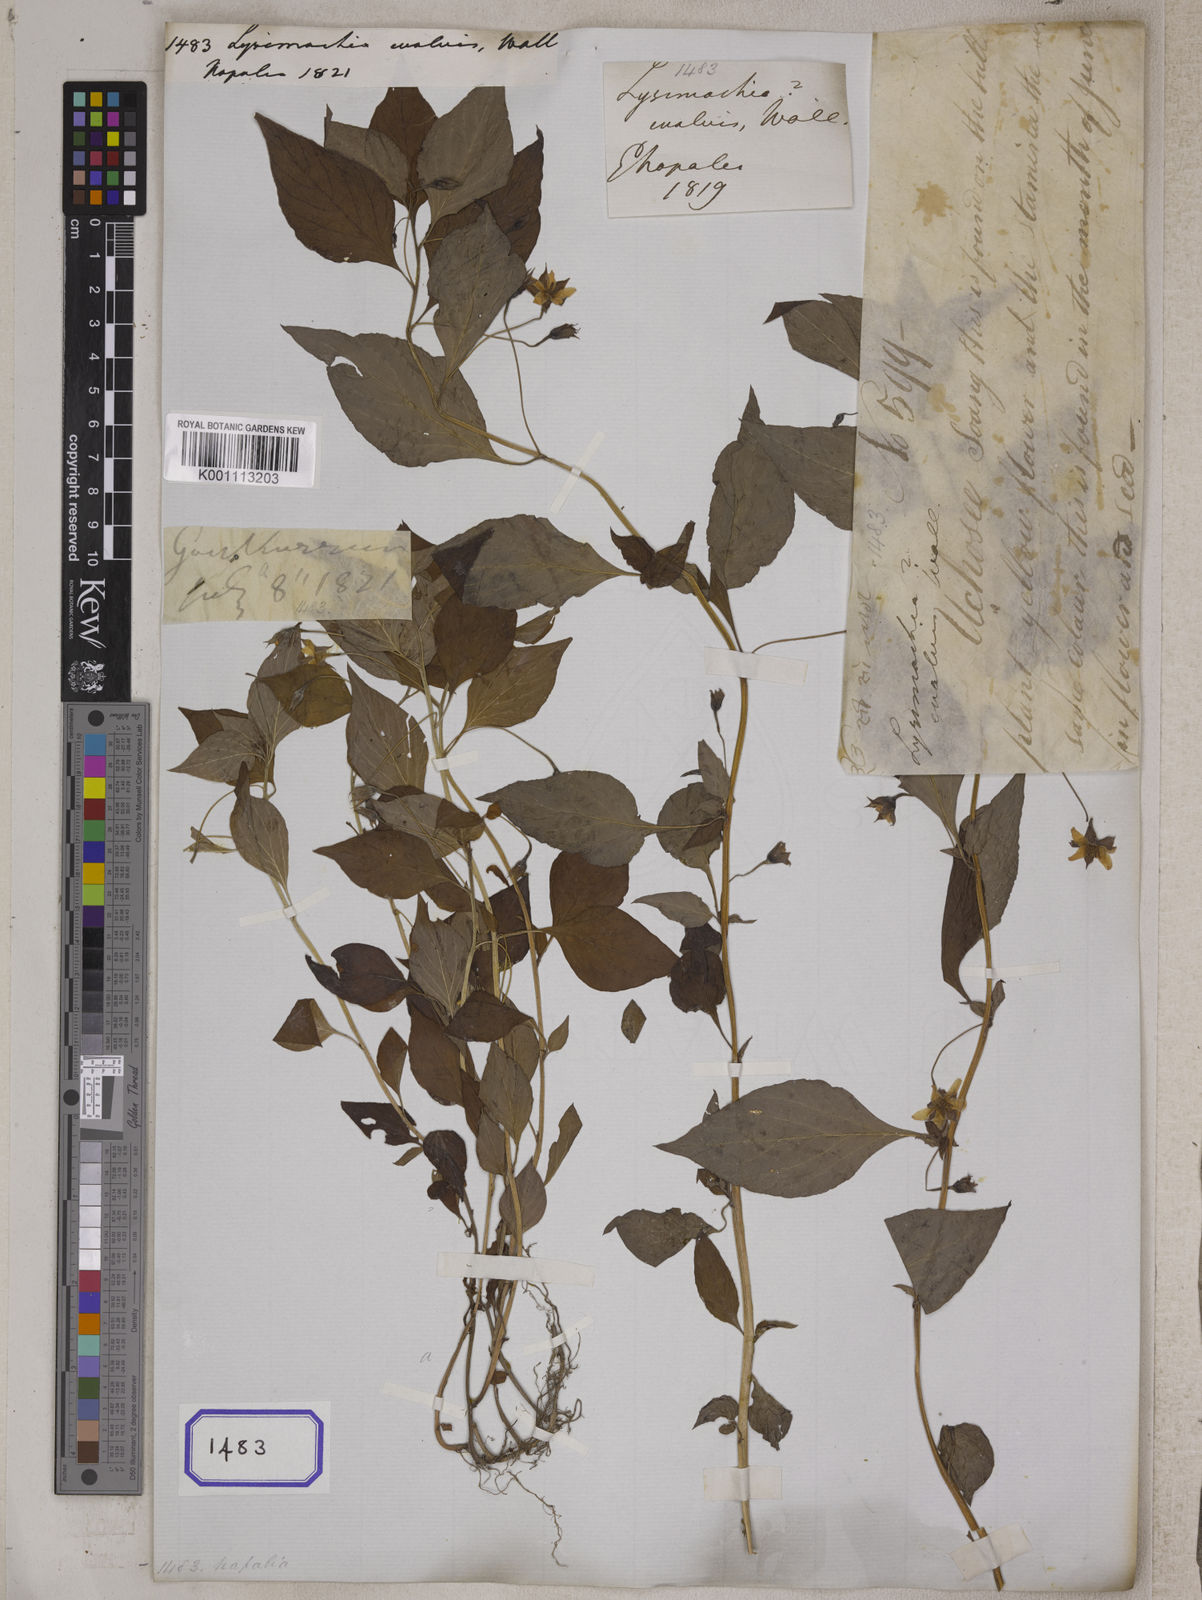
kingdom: Plantae
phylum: Tracheophyta
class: Magnoliopsida
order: Ericales
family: Primulaceae
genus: Lysimachia
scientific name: Lysimachia evalvis
